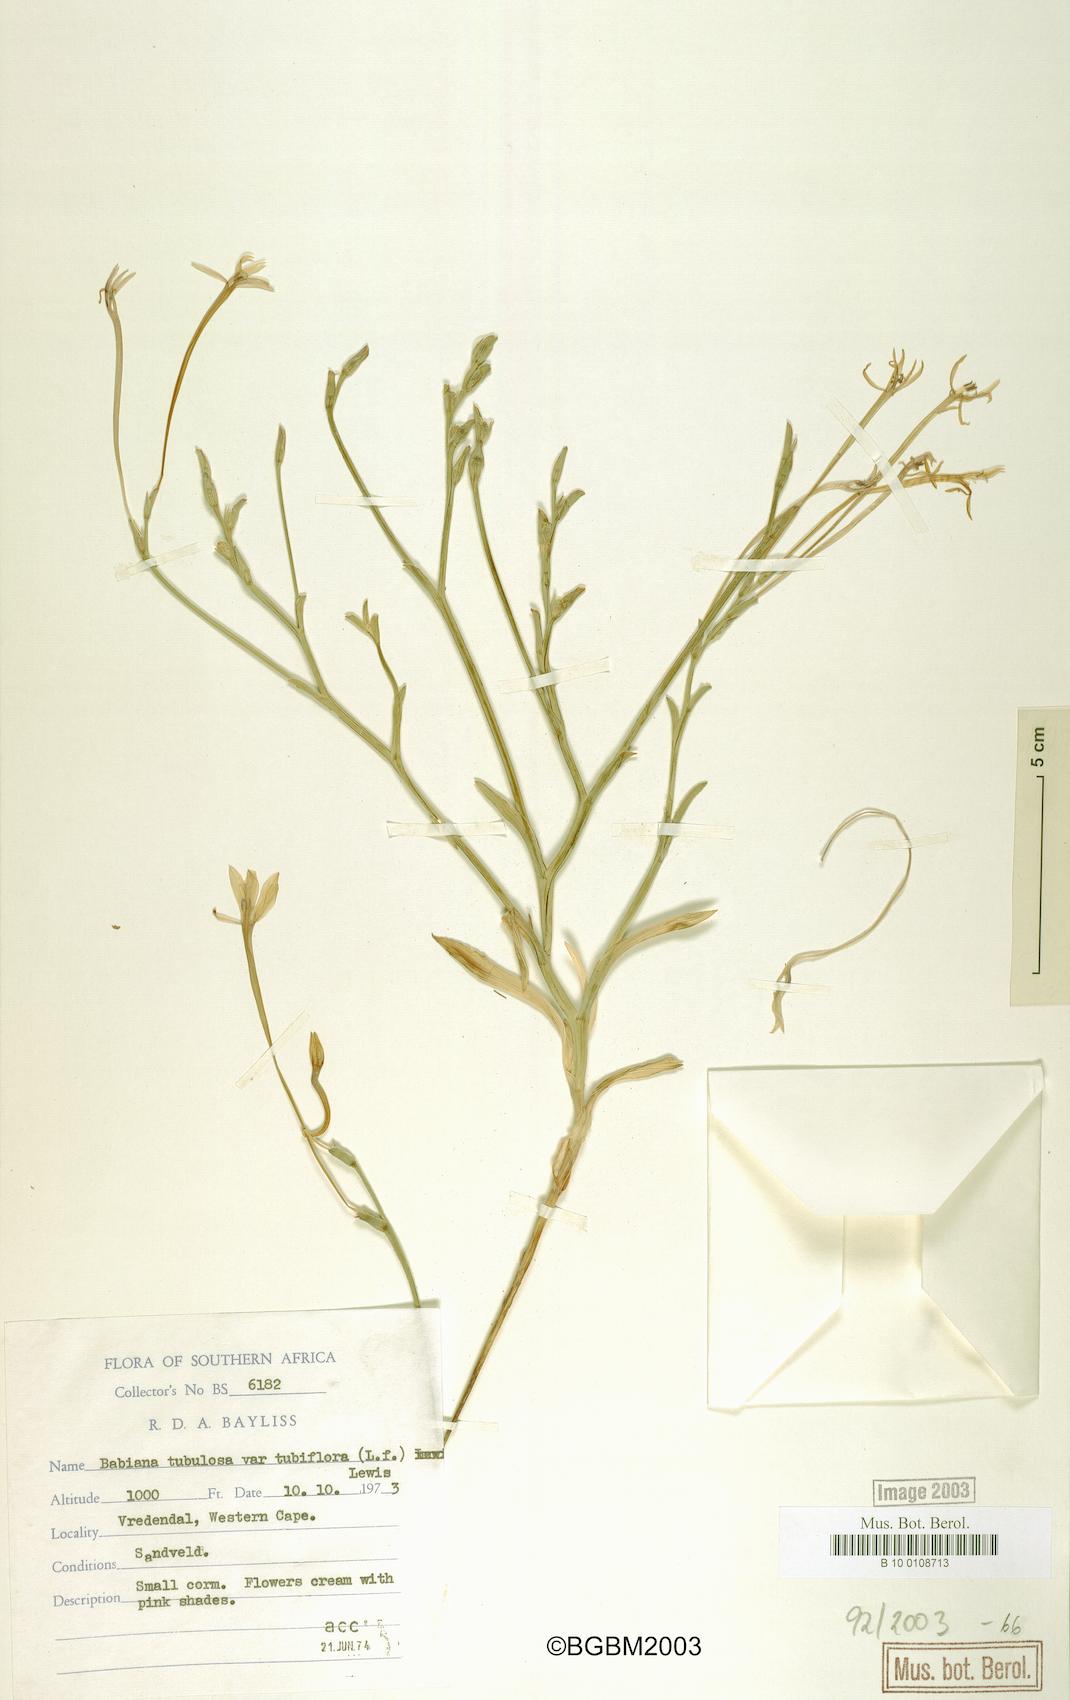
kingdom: Plantae
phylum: Tracheophyta
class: Liliopsida
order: Asparagales
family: Iridaceae
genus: Babiana
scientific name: Babiana tubulosa
